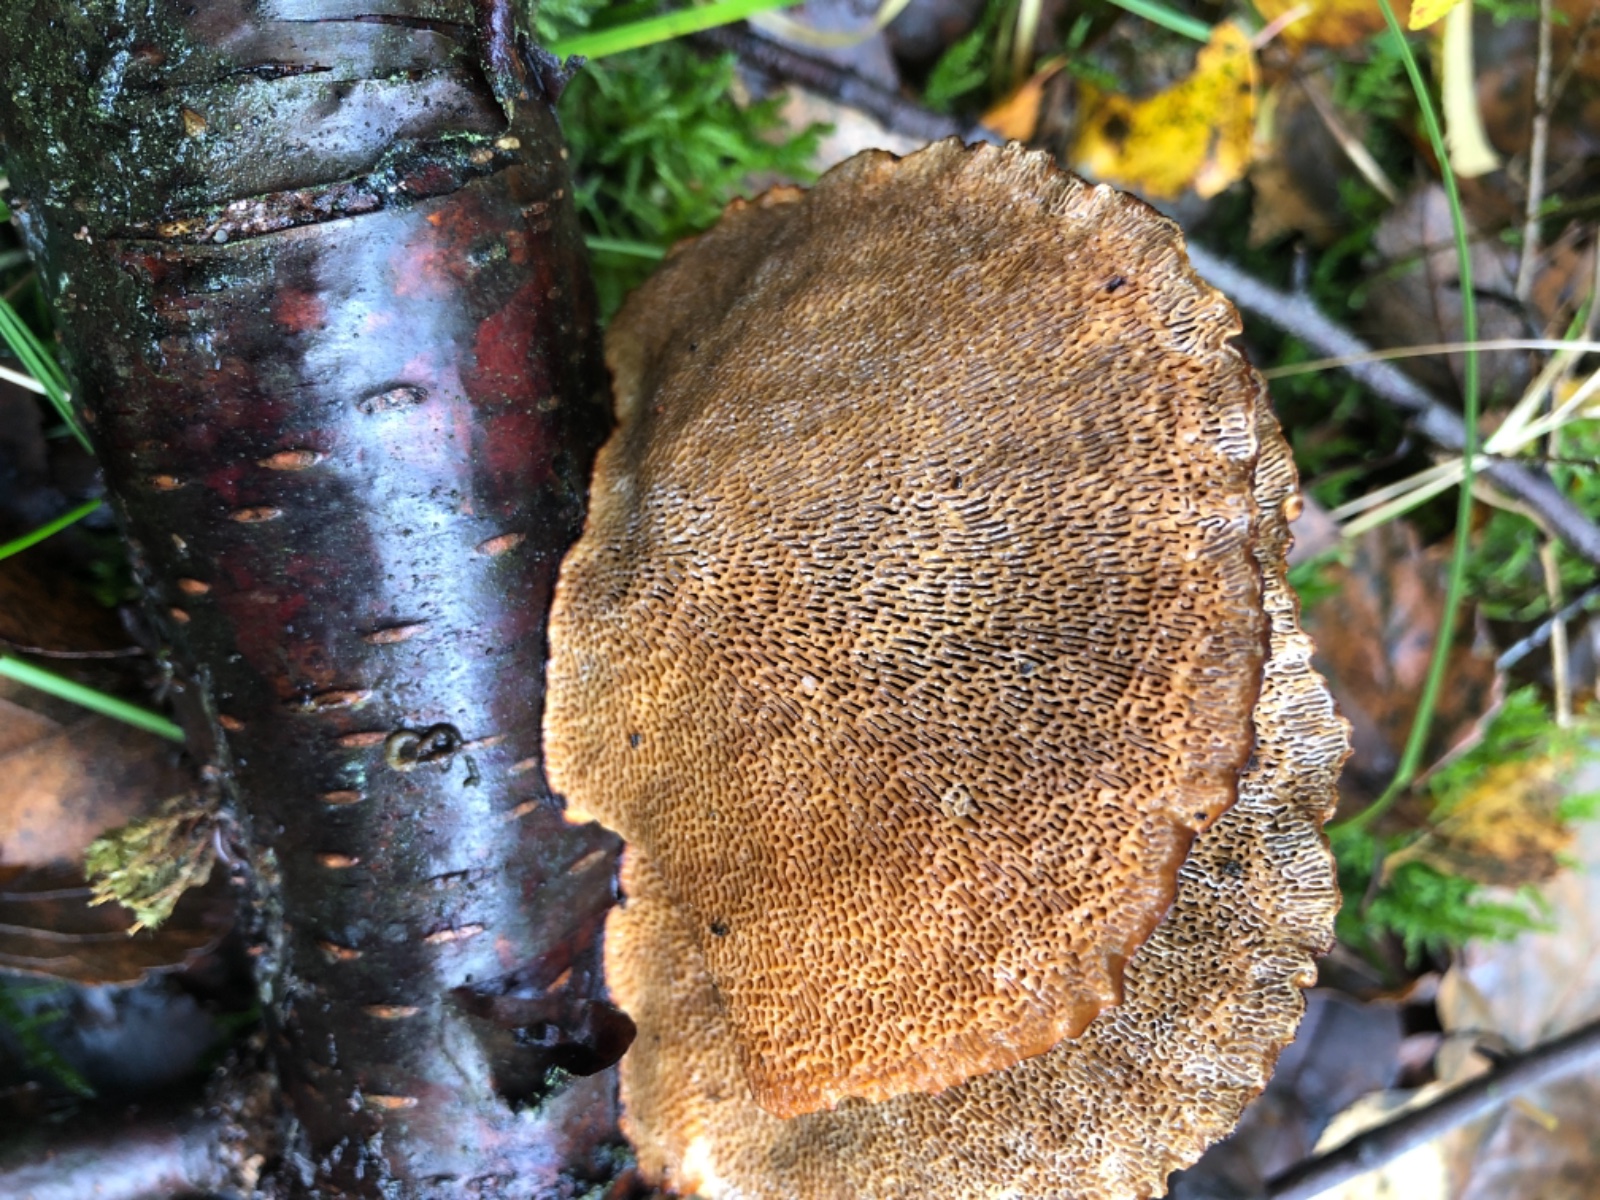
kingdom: Fungi
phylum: Basidiomycota
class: Agaricomycetes
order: Polyporales
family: Polyporaceae
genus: Daedaleopsis
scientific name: Daedaleopsis confragosa
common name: rødmende læderporesvamp
